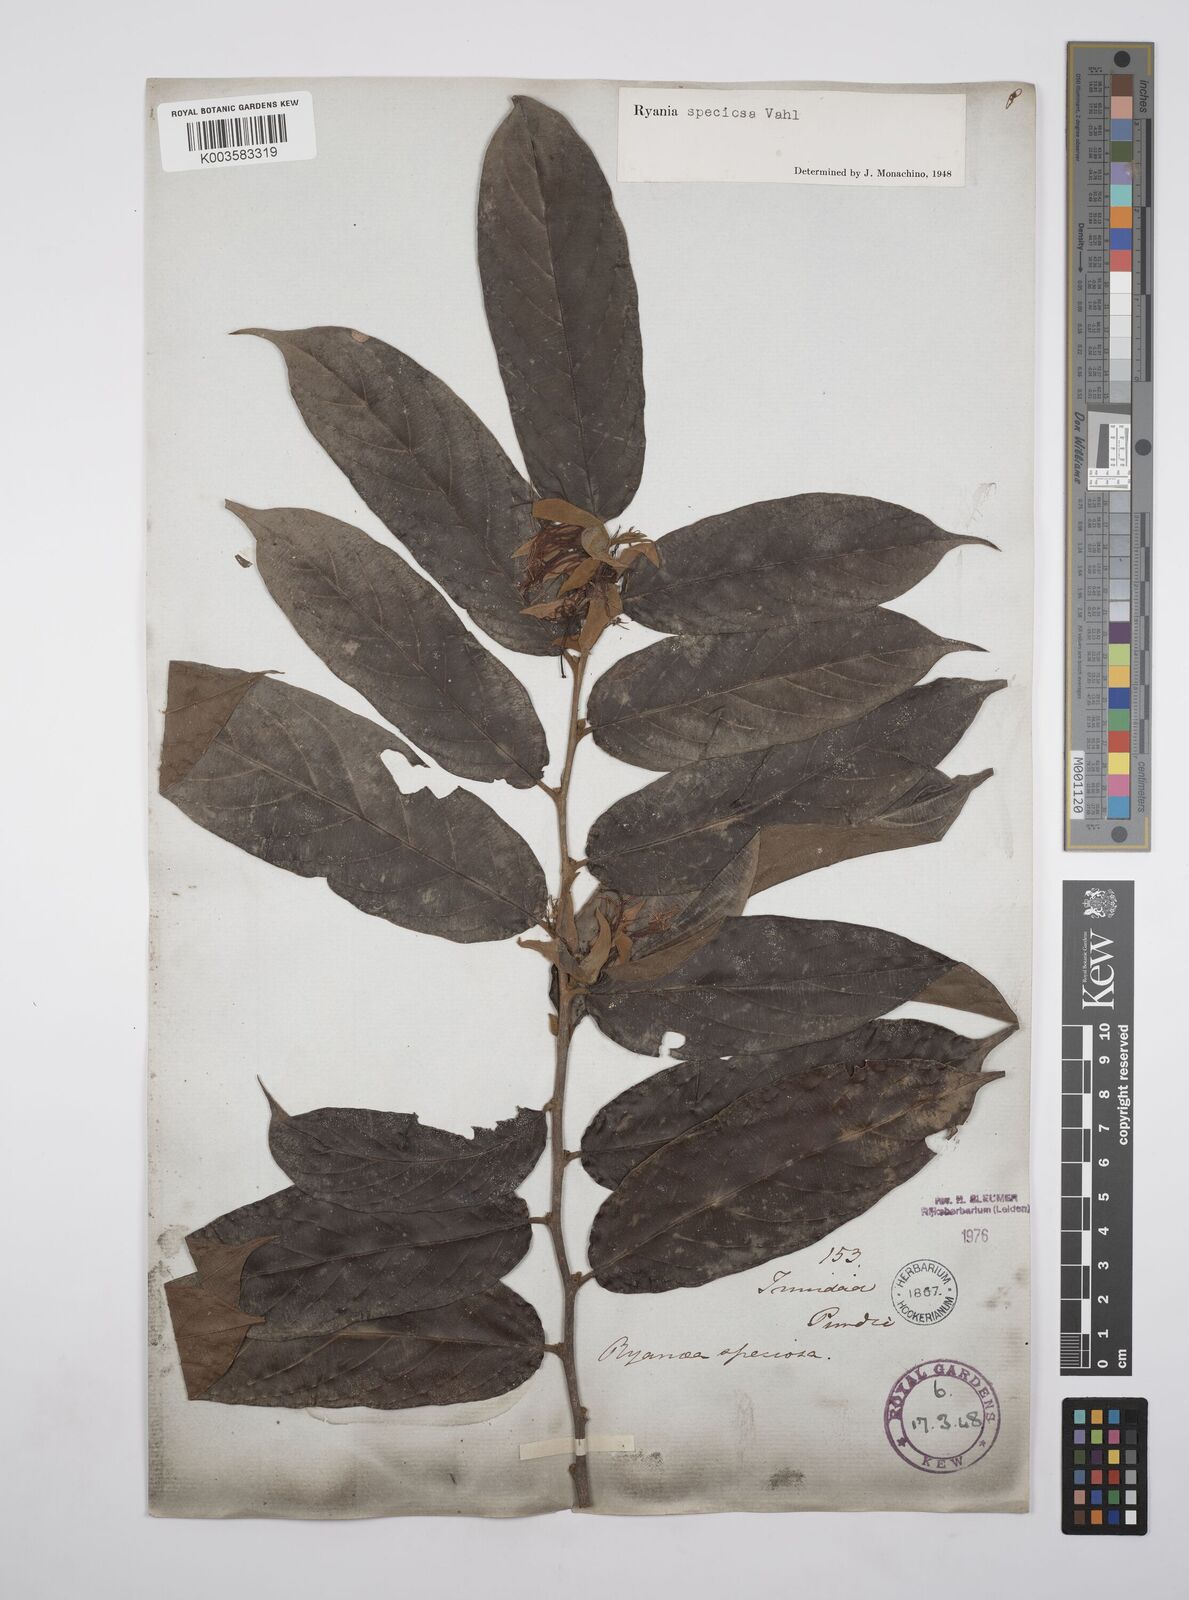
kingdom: Plantae
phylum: Tracheophyta
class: Magnoliopsida
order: Malpighiales
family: Salicaceae
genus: Ryania
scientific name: Ryania speciosa
